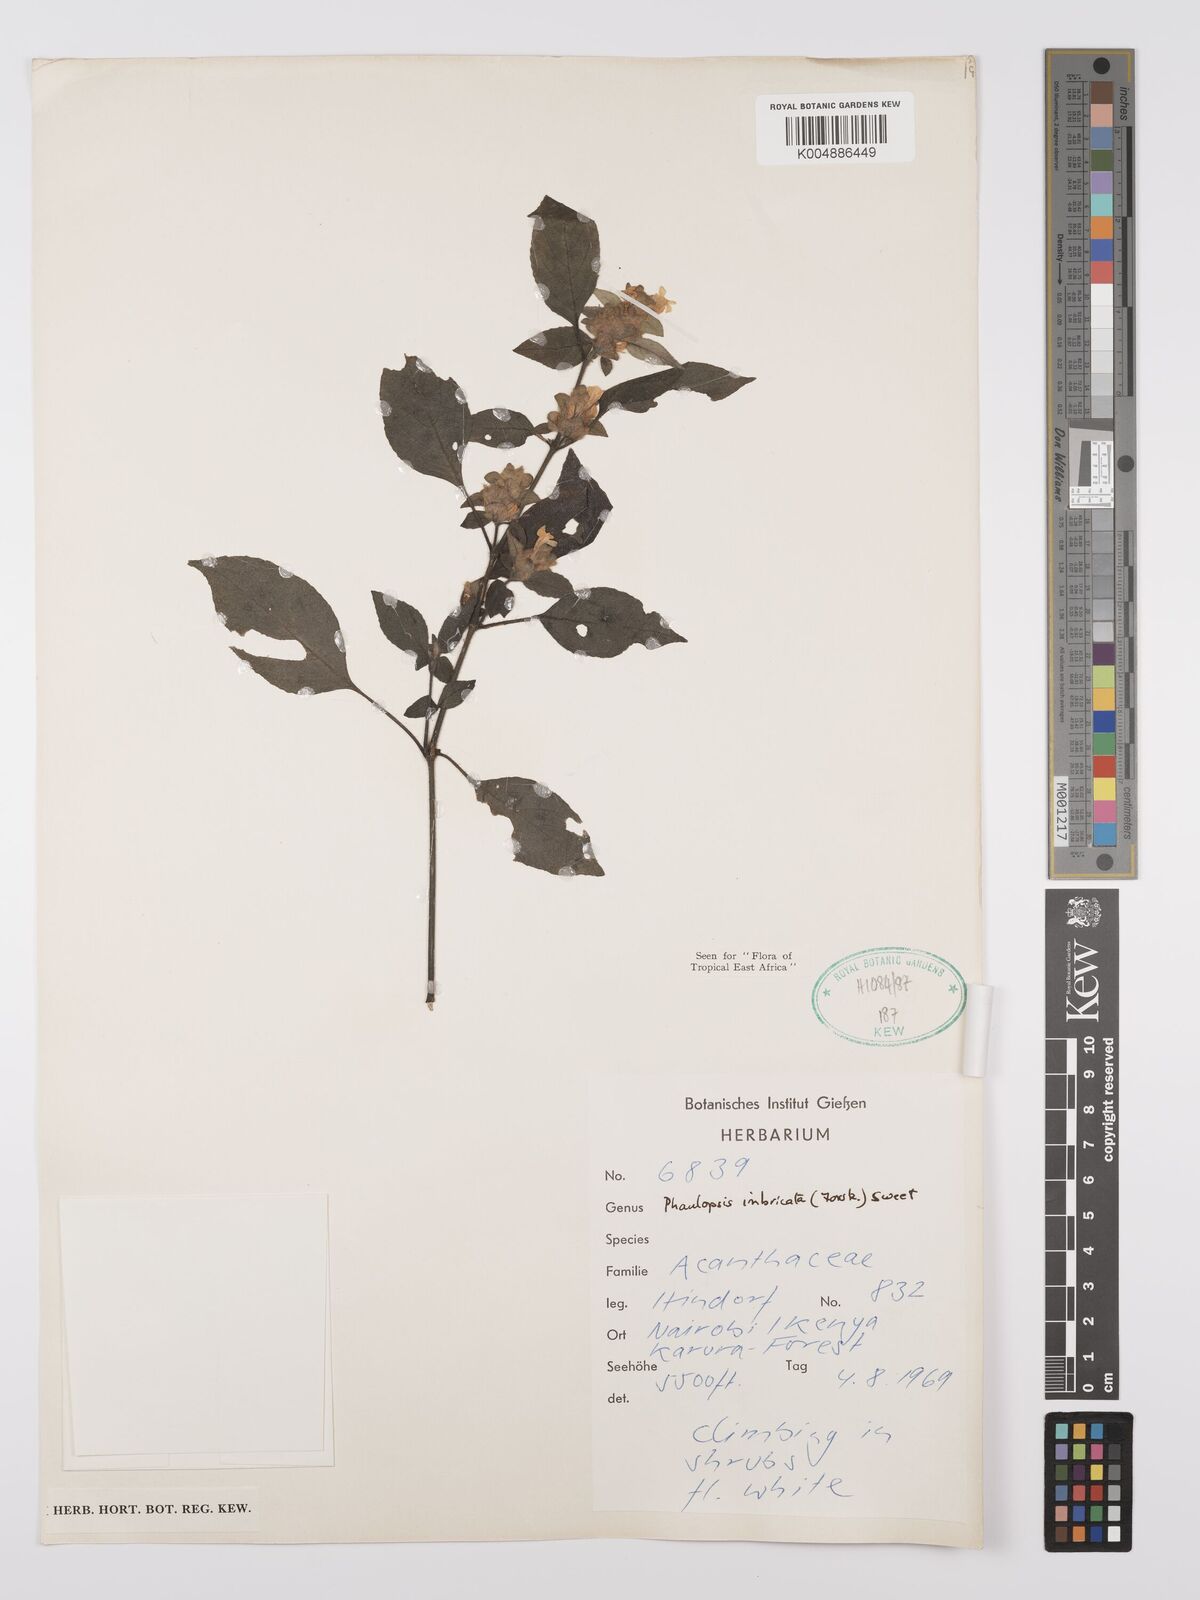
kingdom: Plantae
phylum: Tracheophyta
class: Magnoliopsida
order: Lamiales
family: Acanthaceae
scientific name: Acanthaceae
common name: Acanthaceae
